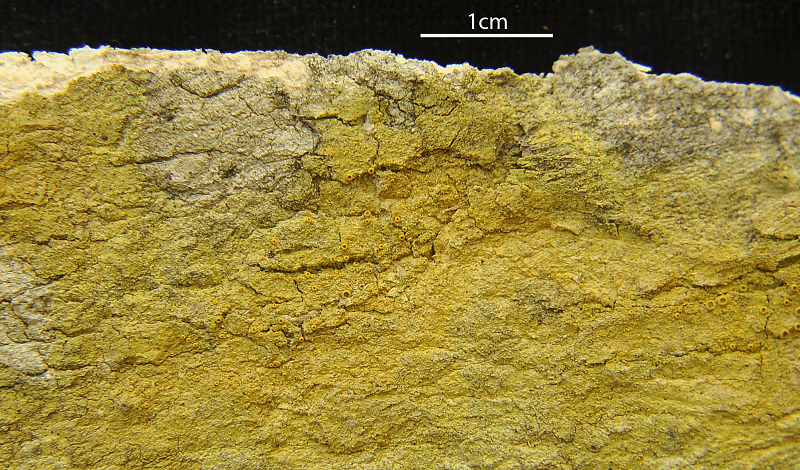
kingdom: Fungi
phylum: Ascomycota
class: Lecanoromycetes
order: Teloschistales
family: Letrouitiaceae
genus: Letrouitia
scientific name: Letrouitia leprolyta
